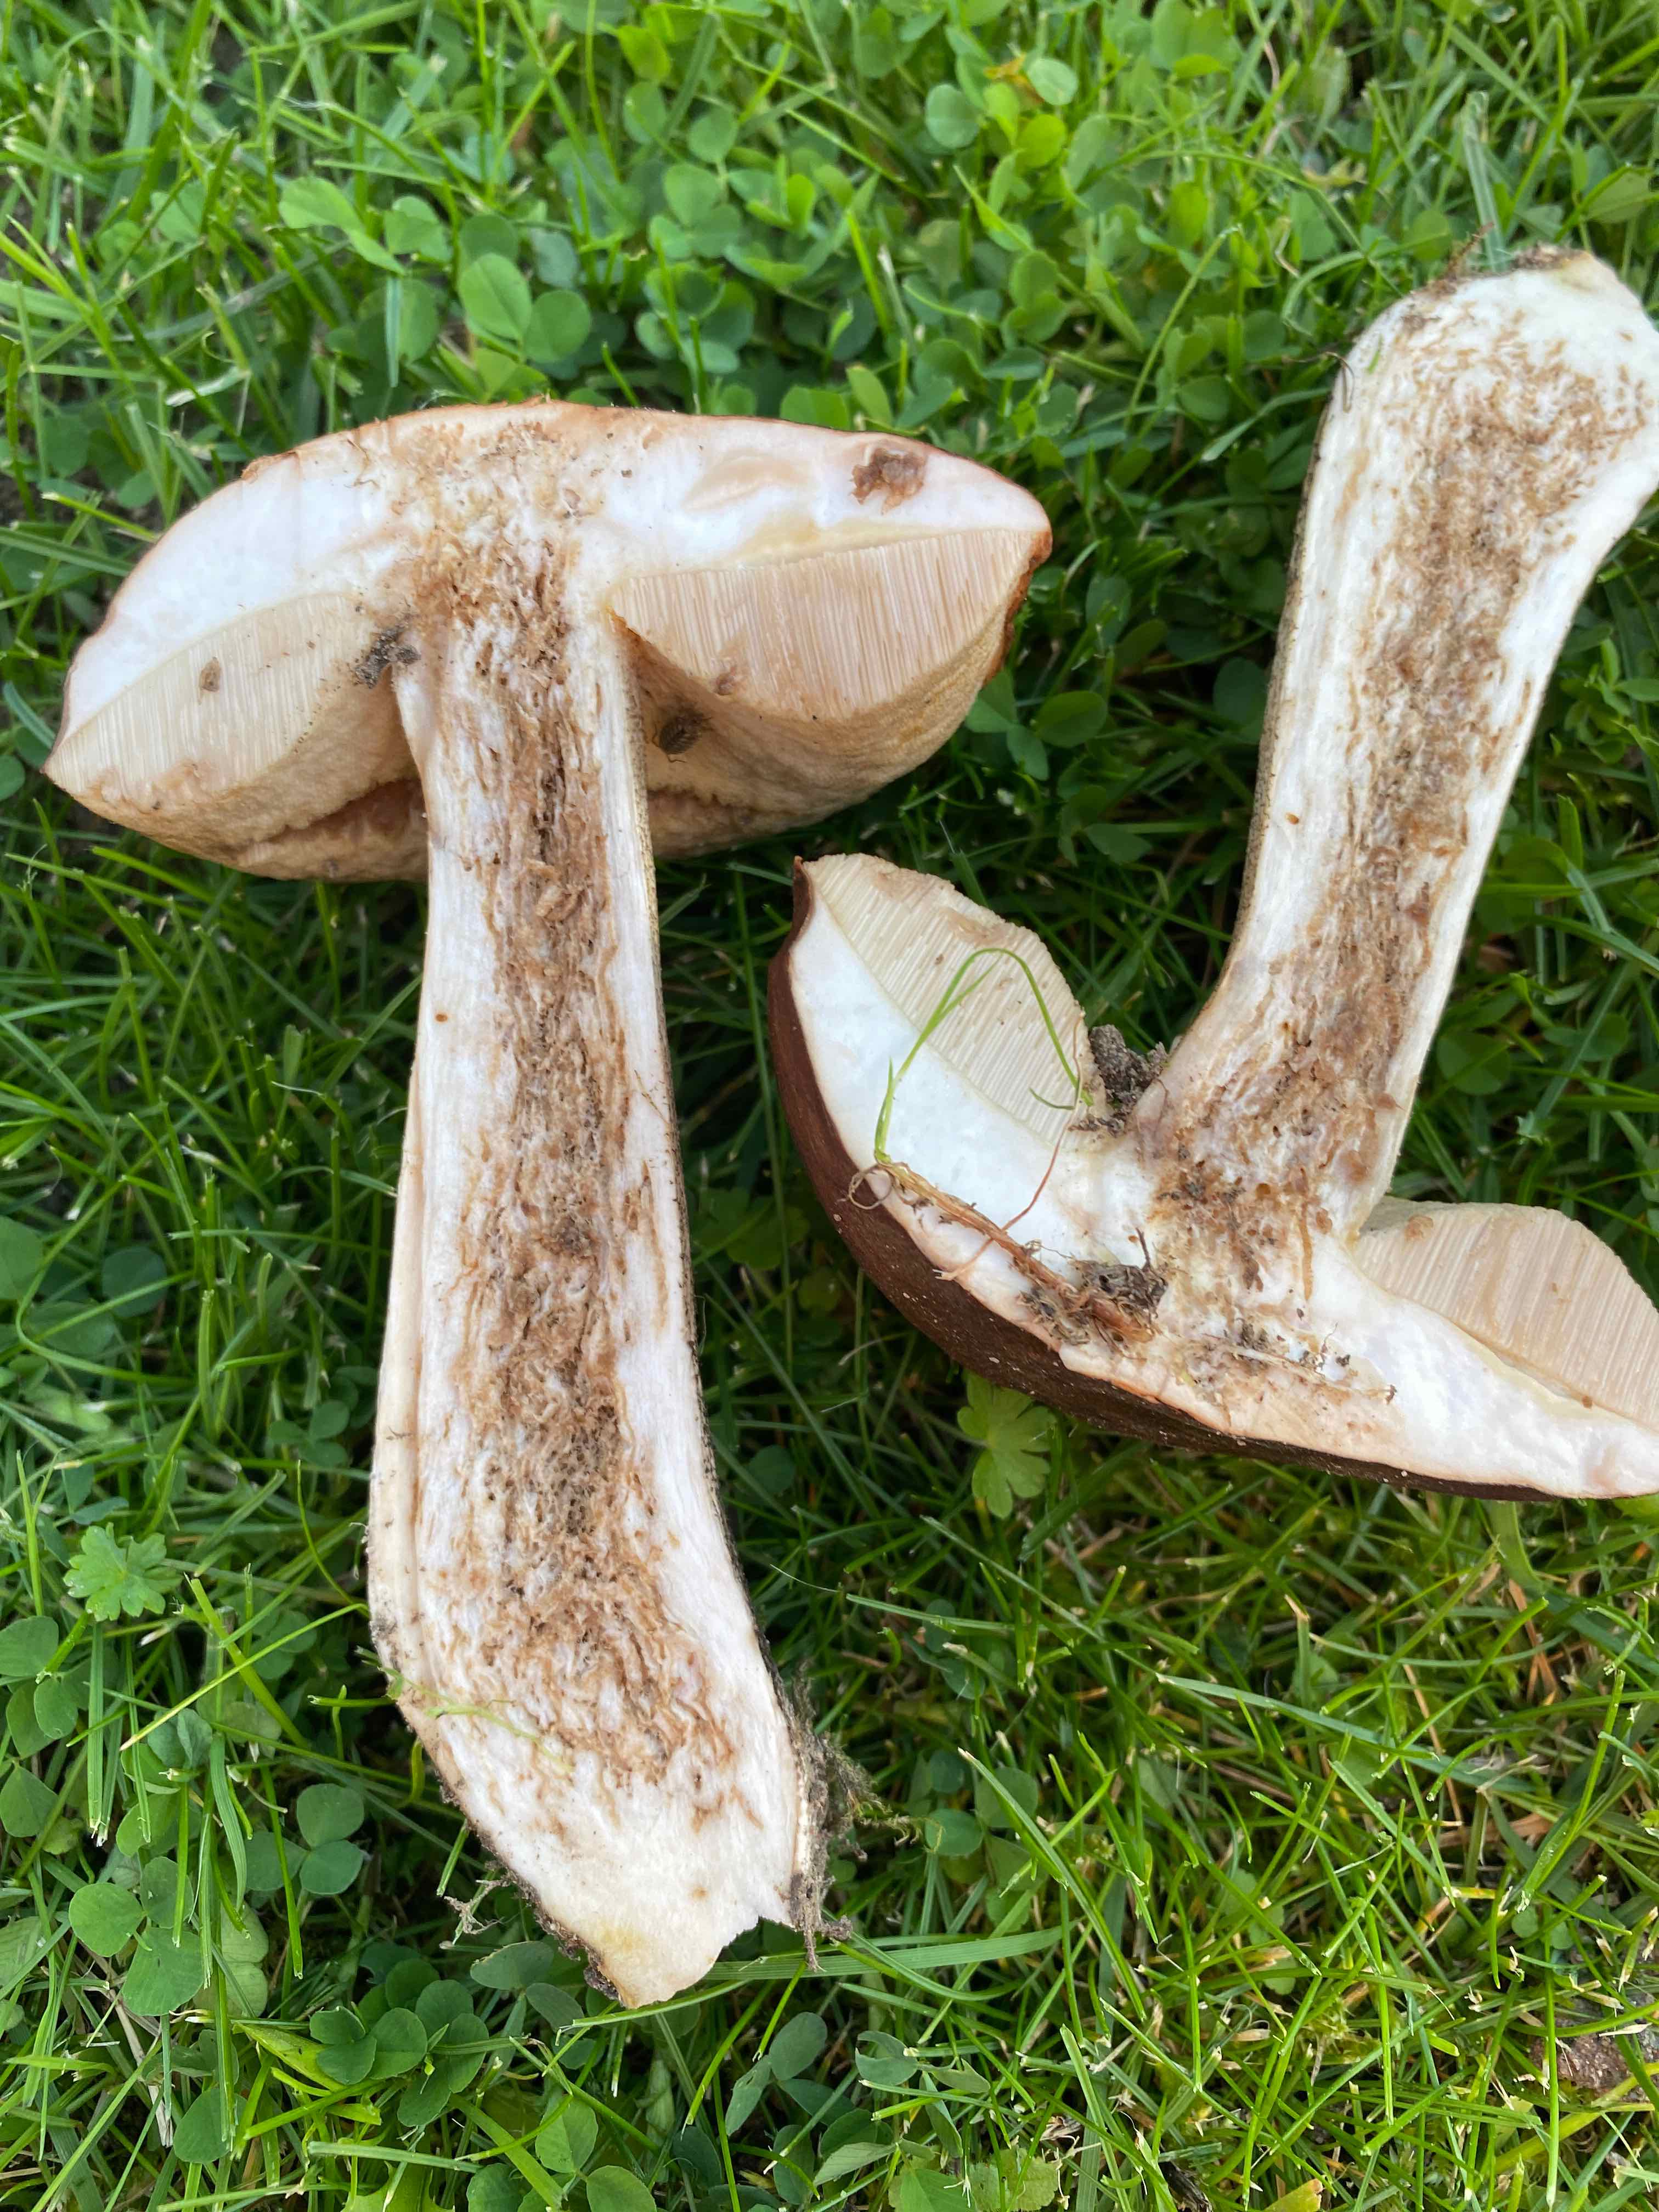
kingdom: Fungi
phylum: Basidiomycota
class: Agaricomycetes
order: Boletales
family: Boletaceae
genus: Leccinum
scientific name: Leccinum
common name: skælrørhat
